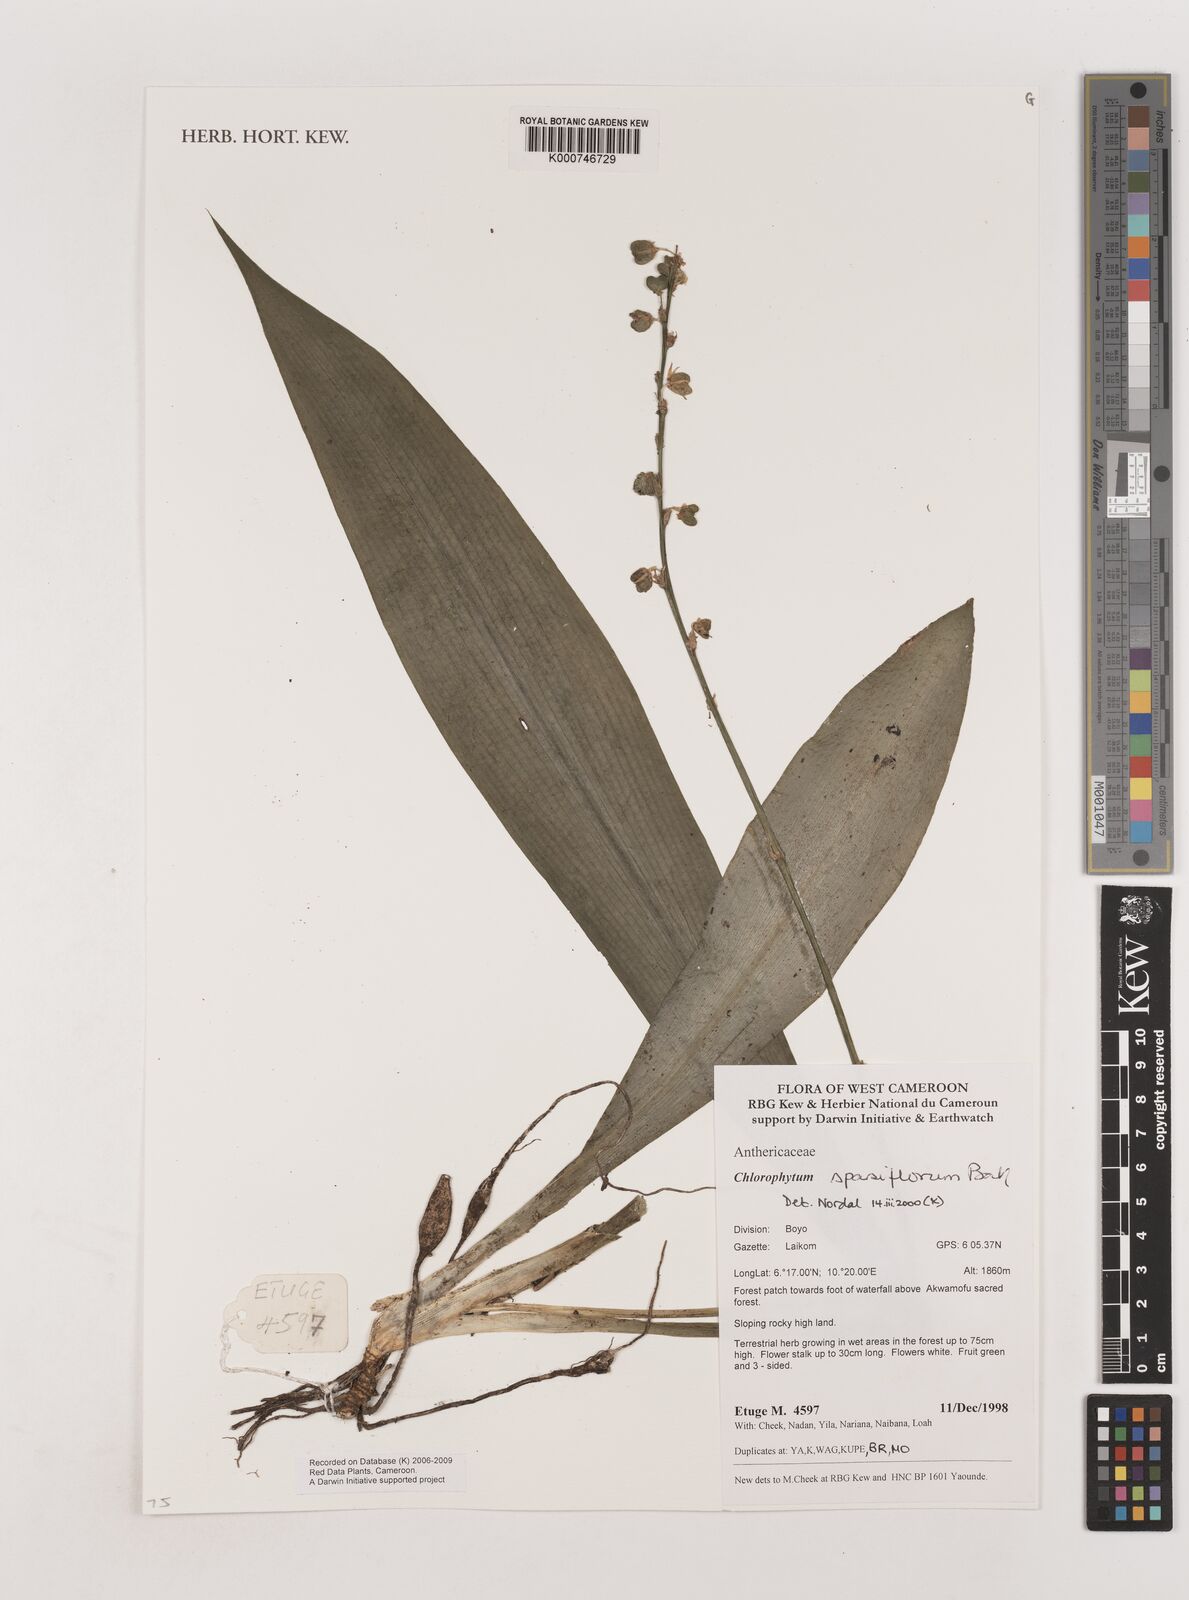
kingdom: Plantae
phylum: Tracheophyta
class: Liliopsida
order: Asparagales
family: Asparagaceae
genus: Chlorophytum
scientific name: Chlorophytum sparsiflorum
